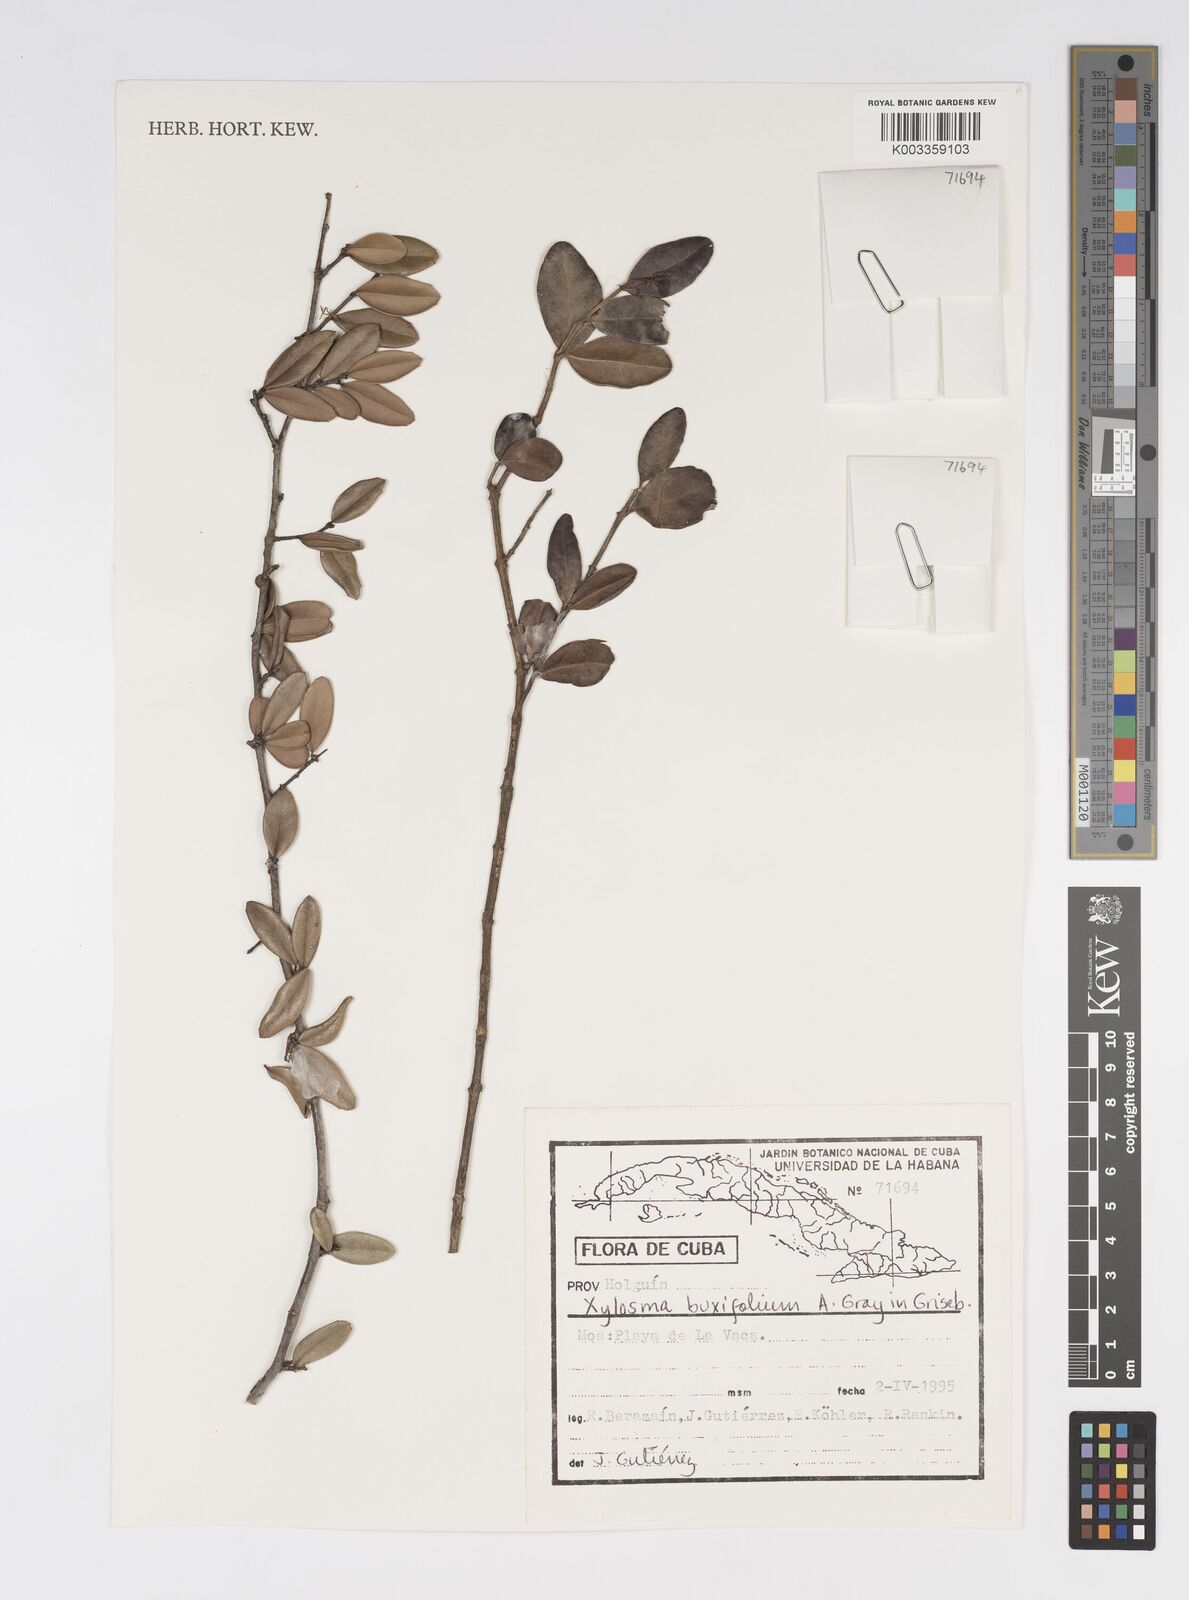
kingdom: Plantae
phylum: Tracheophyta
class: Magnoliopsida
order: Malpighiales
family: Salicaceae
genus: Xylosma
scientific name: Xylosma buxifolia
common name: Cockspur
